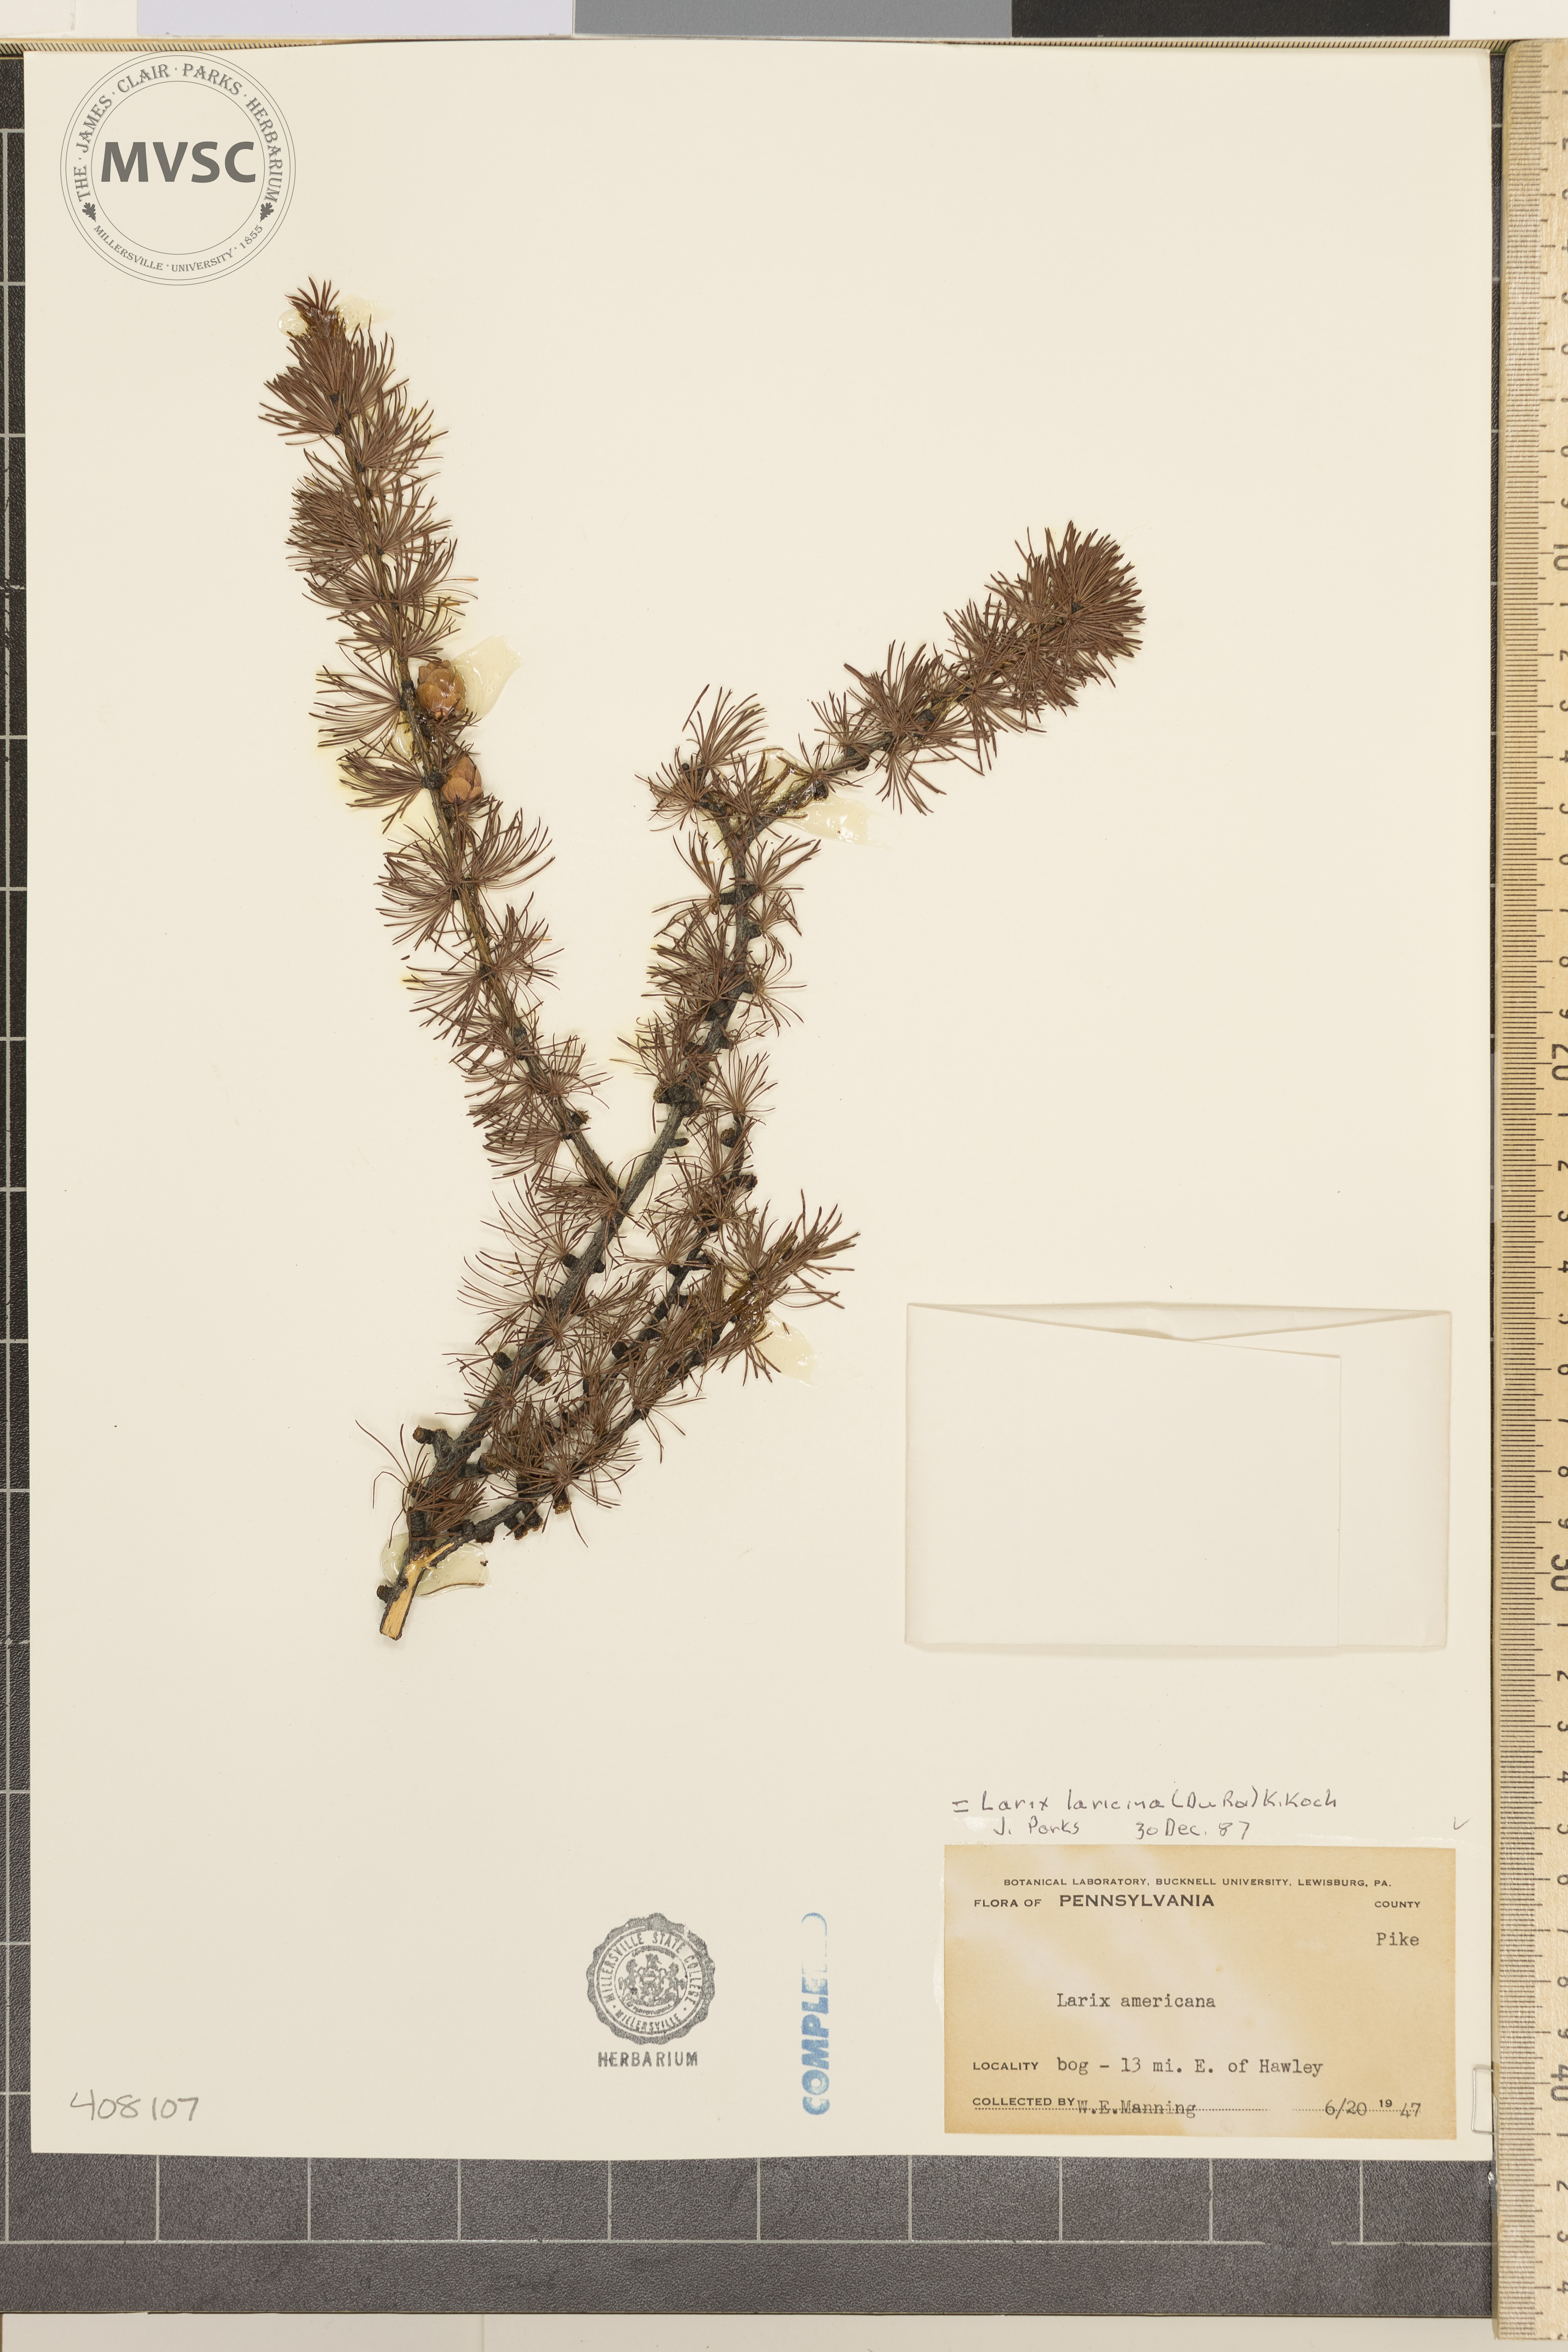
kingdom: Plantae
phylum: Tracheophyta
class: Pinopsida
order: Pinales
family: Pinaceae
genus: Larix
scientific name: Larix laricina
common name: American larch
